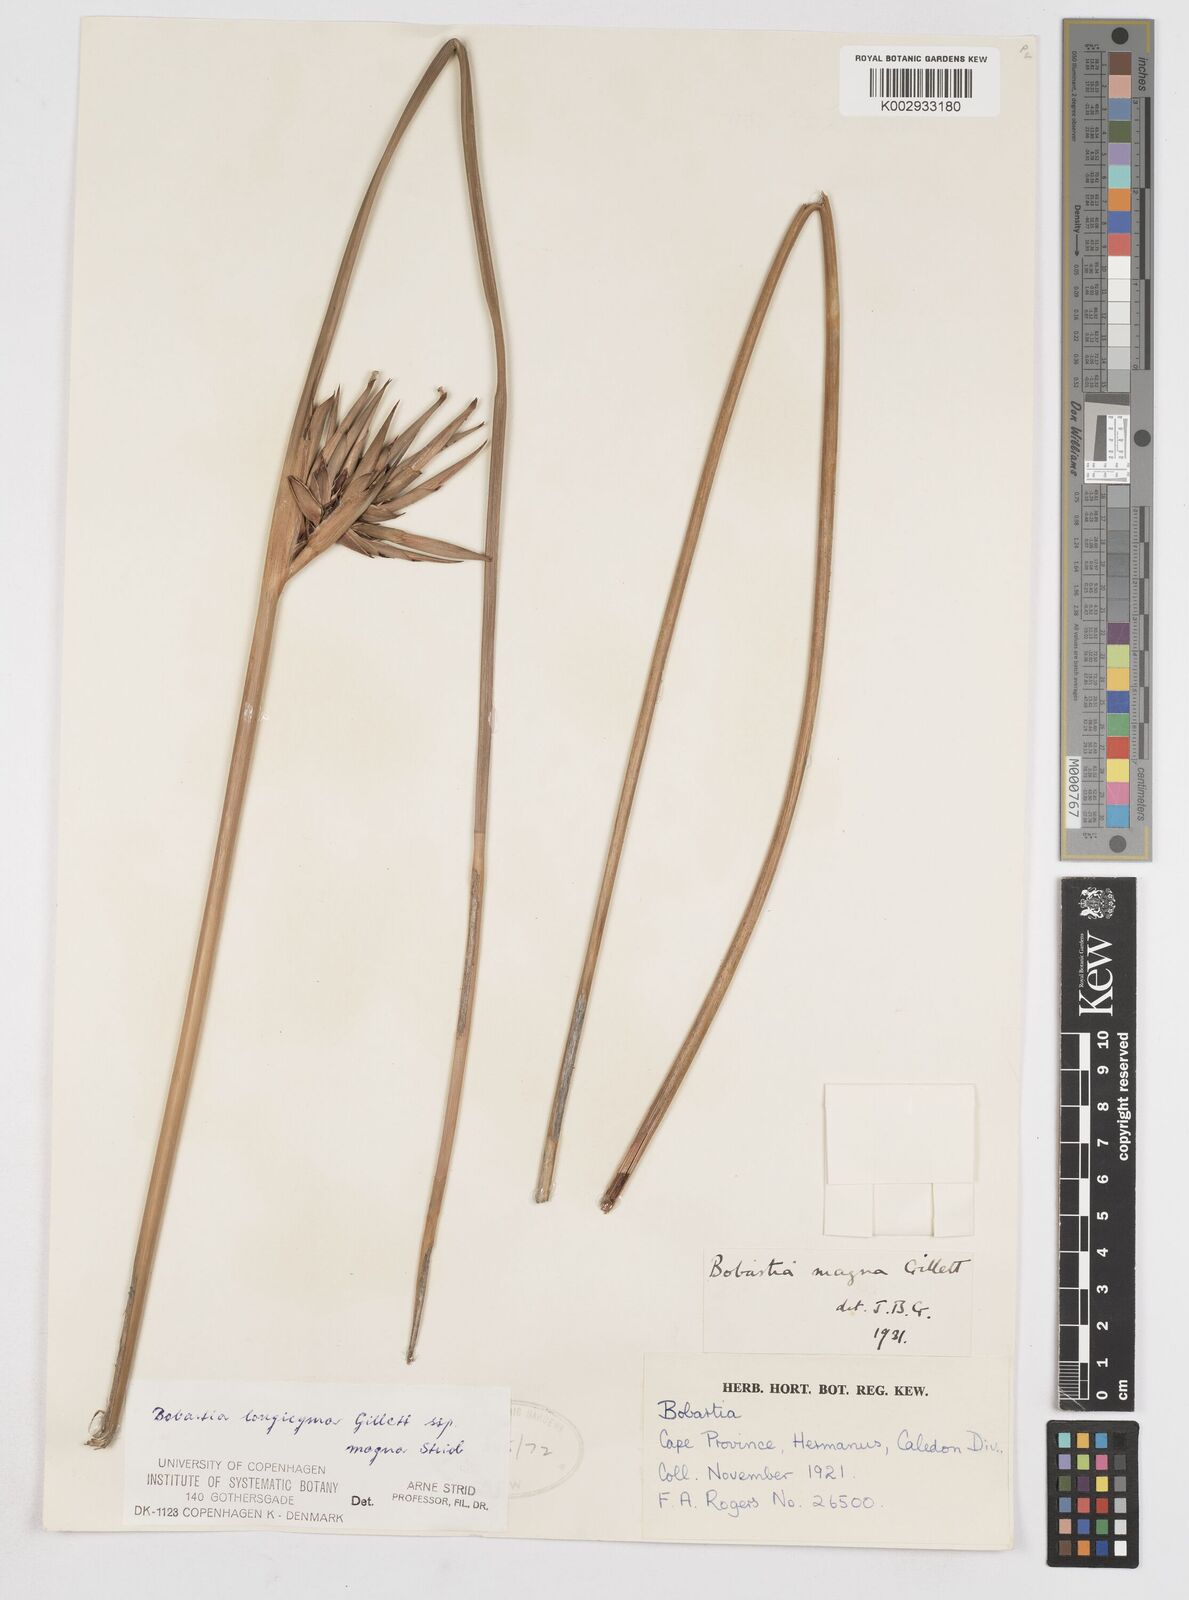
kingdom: Plantae
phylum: Tracheophyta
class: Liliopsida
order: Asparagales
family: Iridaceae
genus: Bobartia
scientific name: Bobartia longicyma
